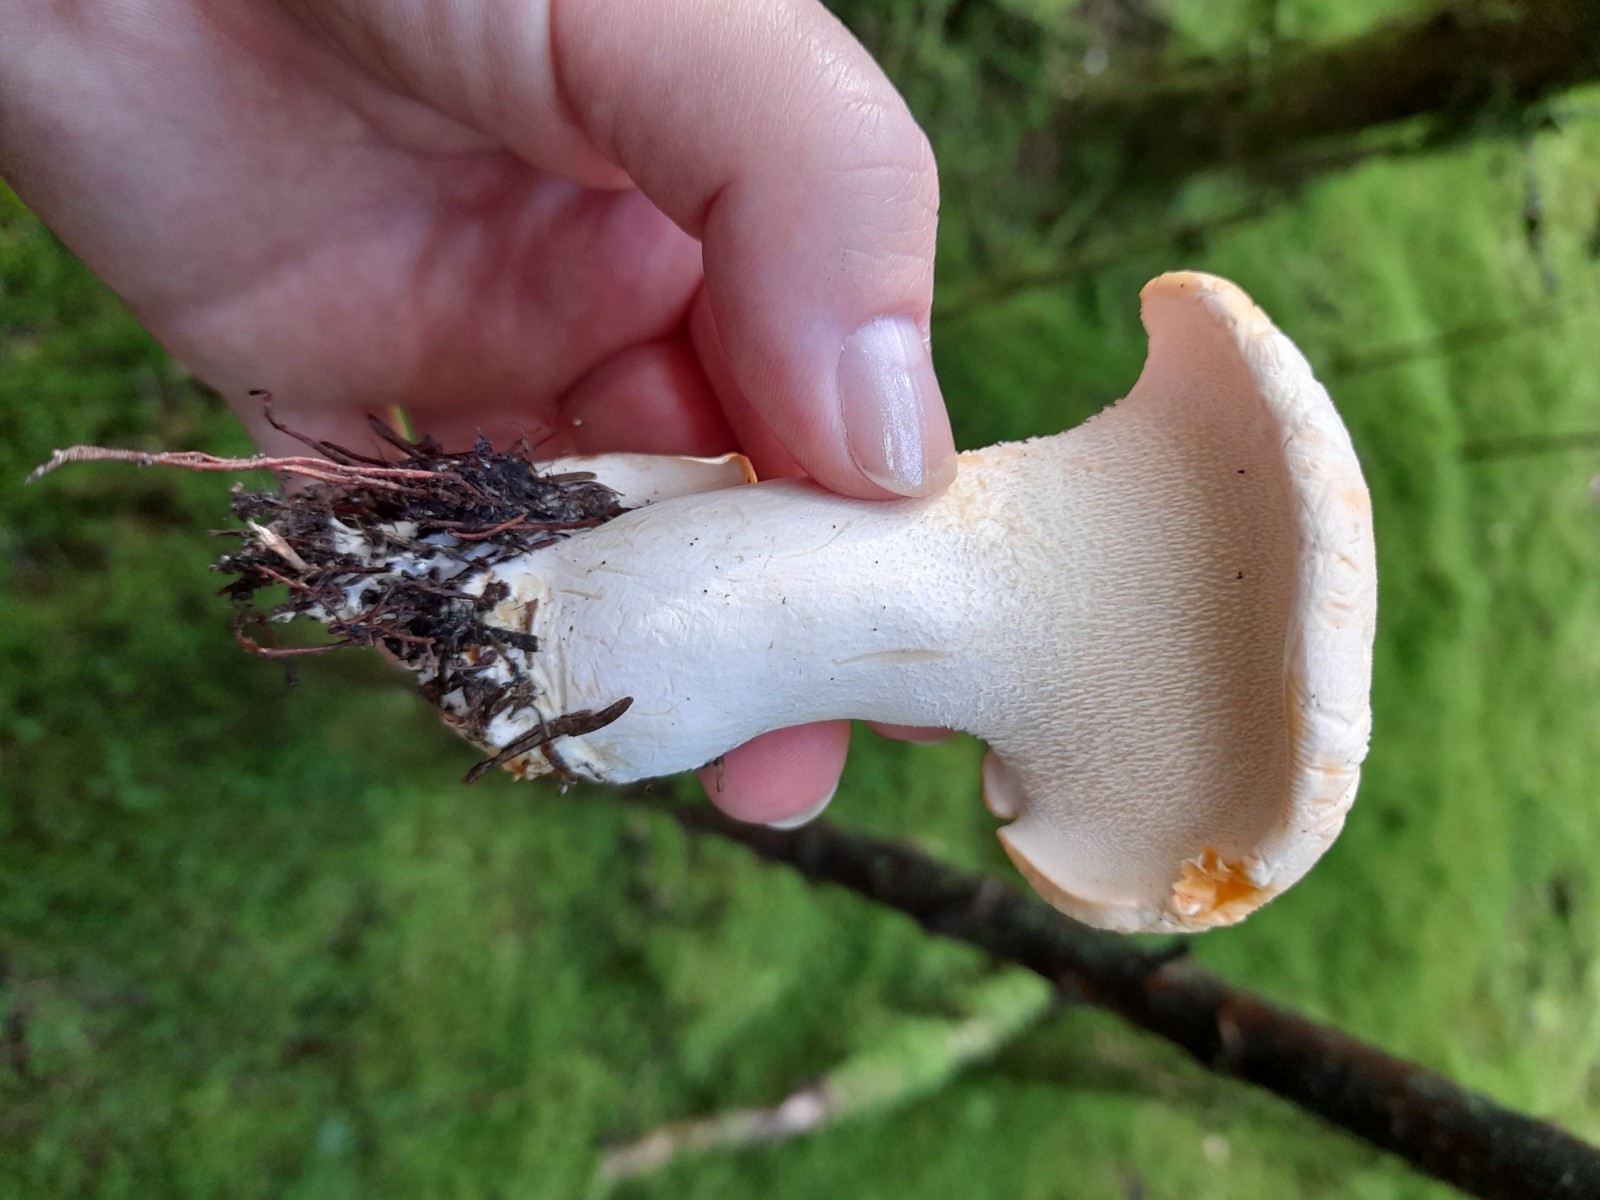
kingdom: Fungi
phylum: Basidiomycota
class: Agaricomycetes
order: Cantharellales
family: Hydnaceae
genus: Hydnum
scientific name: Hydnum repandum
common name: almindelig pigsvamp
